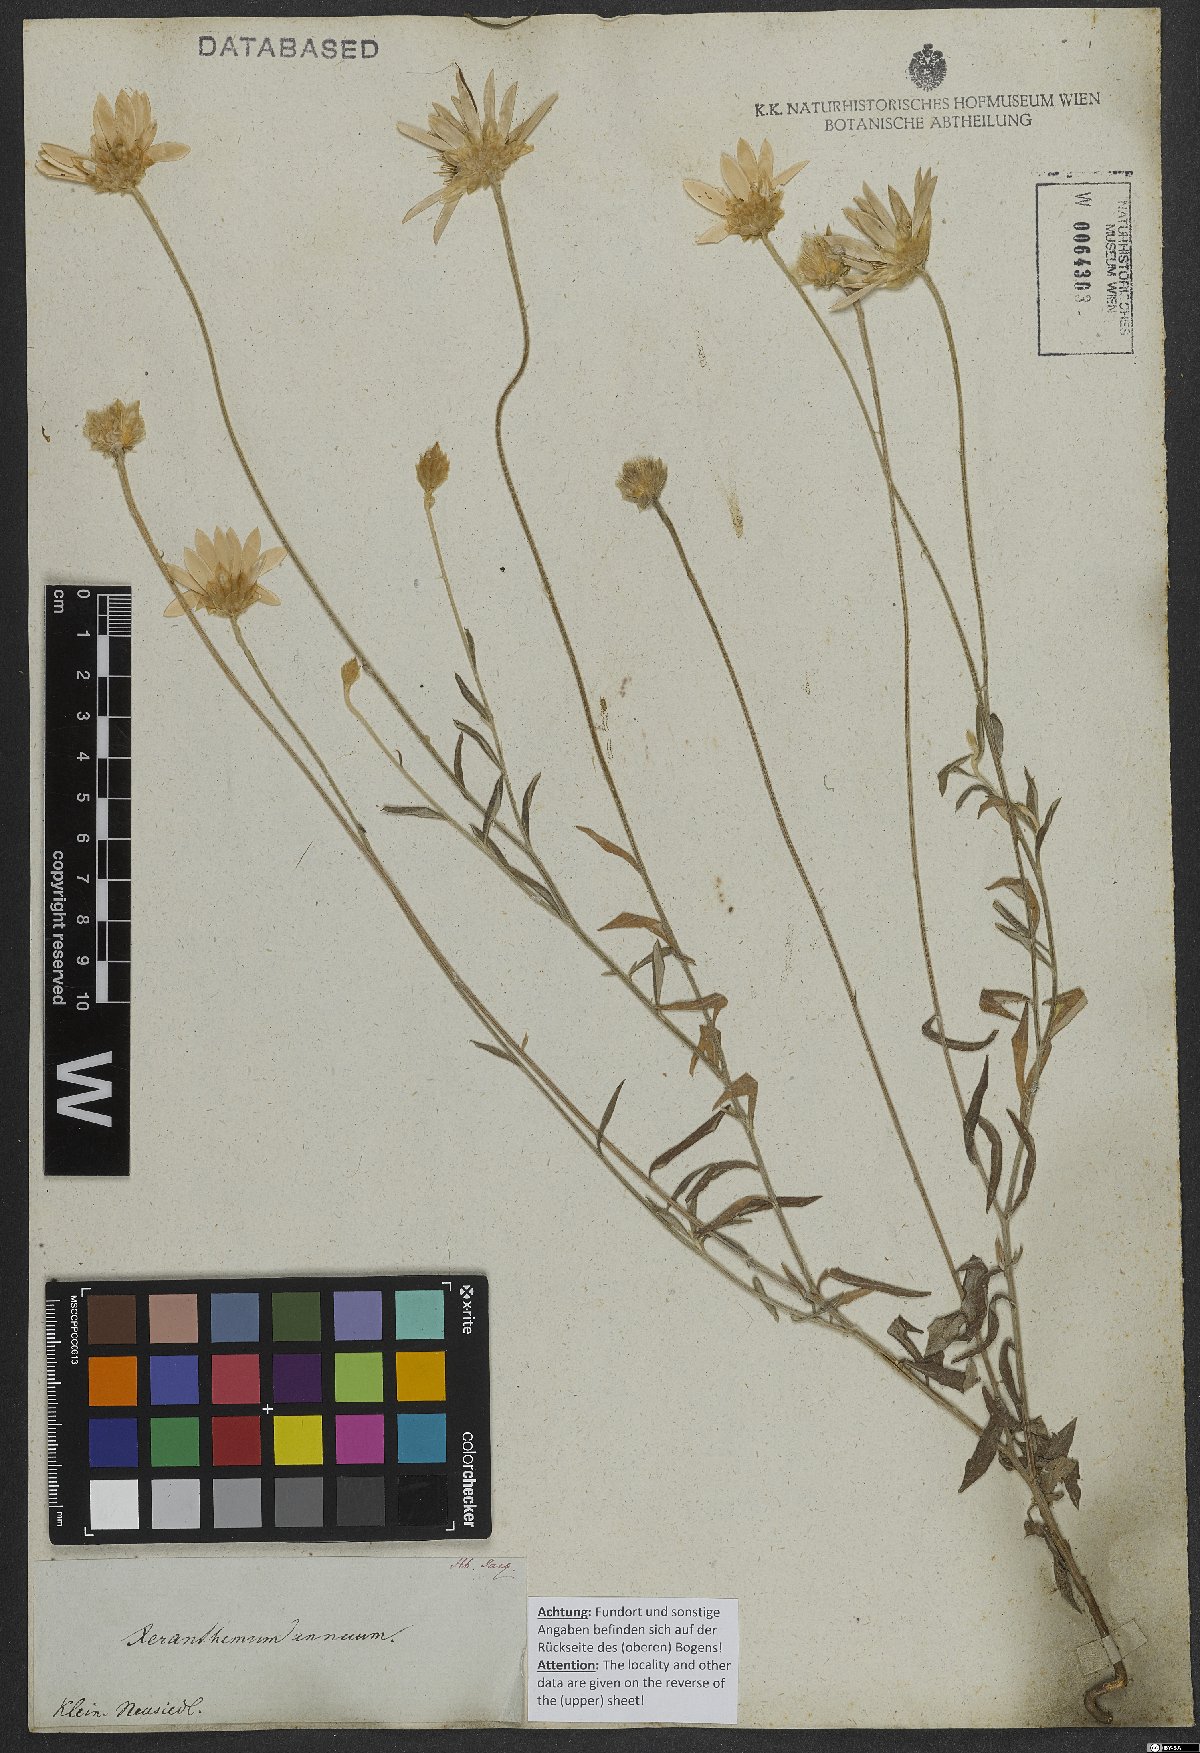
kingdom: Plantae
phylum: Tracheophyta
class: Magnoliopsida
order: Asterales
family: Asteraceae
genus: Xeranthemum
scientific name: Xeranthemum annuum
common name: Immortelle
